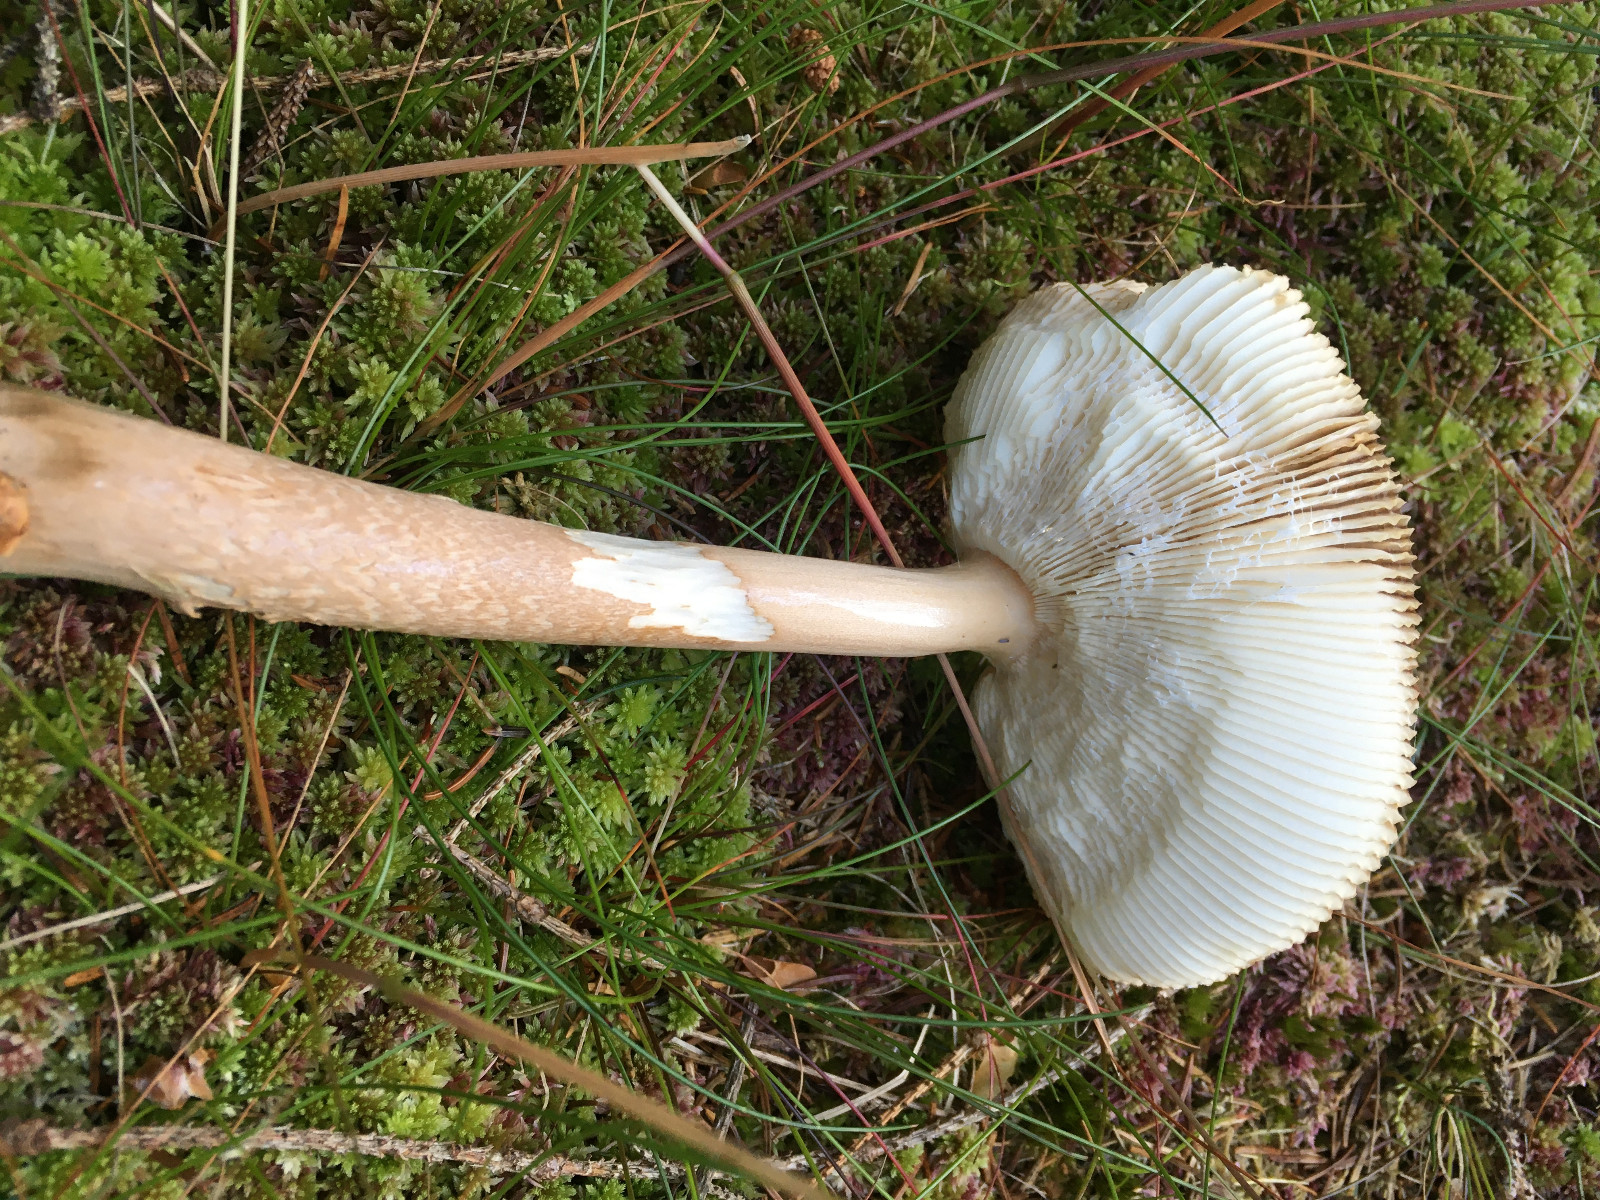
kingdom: Fungi
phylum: Basidiomycota
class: Agaricomycetes
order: Agaricales
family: Amanitaceae
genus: Amanita
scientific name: Amanita fulva
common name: brun kam-fluesvamp
